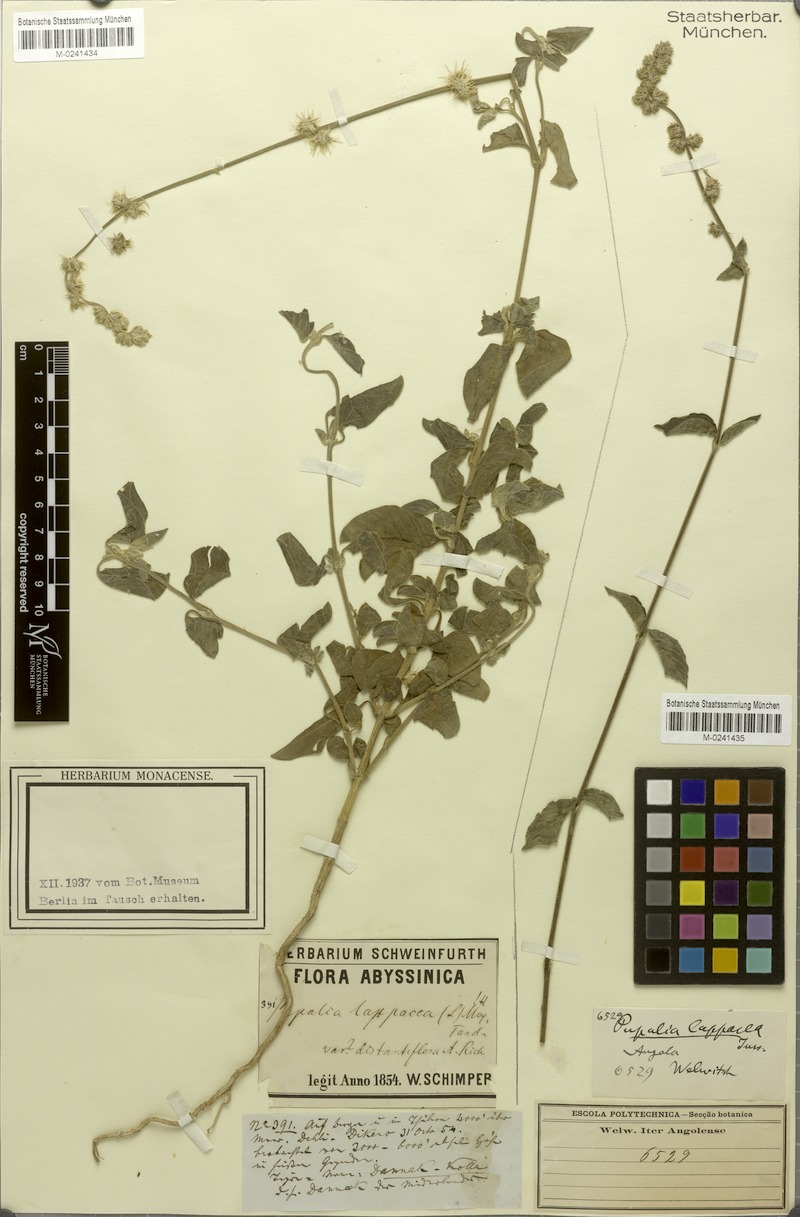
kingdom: Plantae
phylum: Tracheophyta
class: Magnoliopsida
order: Caryophyllales
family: Amaranthaceae
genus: Pupalia
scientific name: Pupalia lappacea
